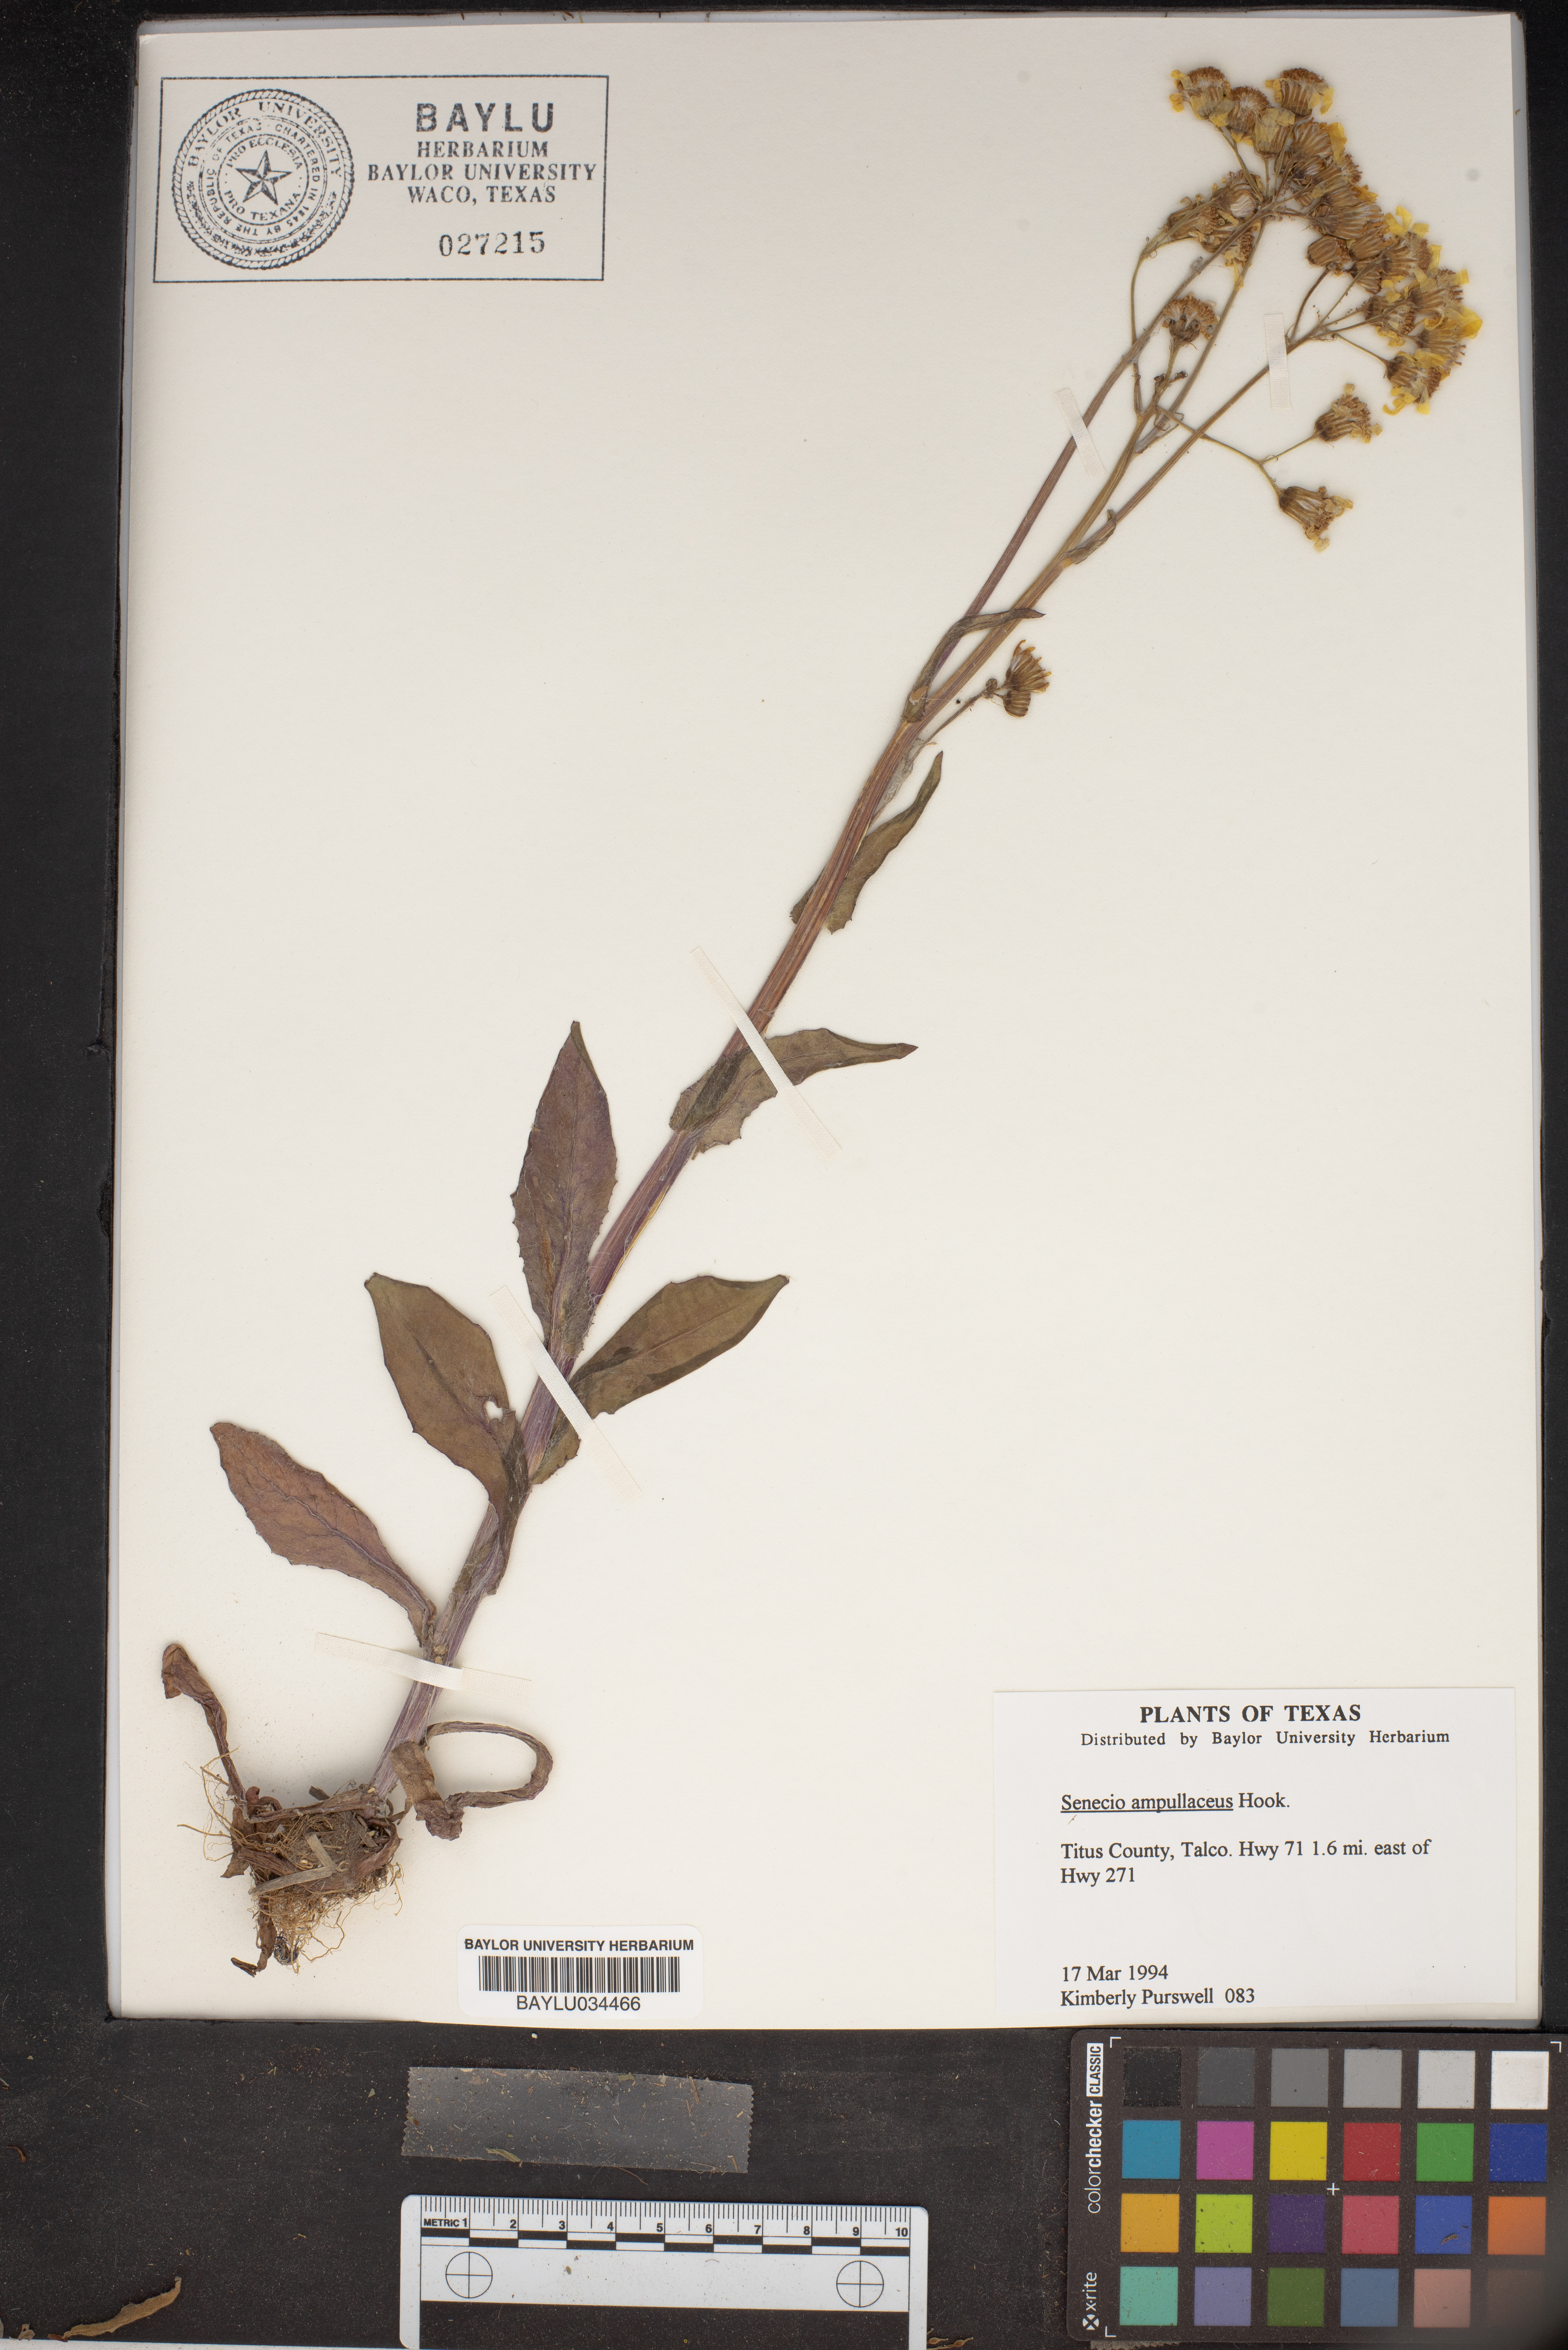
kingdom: Plantae
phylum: Tracheophyta
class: Magnoliopsida
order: Asterales
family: Asteraceae
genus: Senecio
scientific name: Senecio ampullaceus
